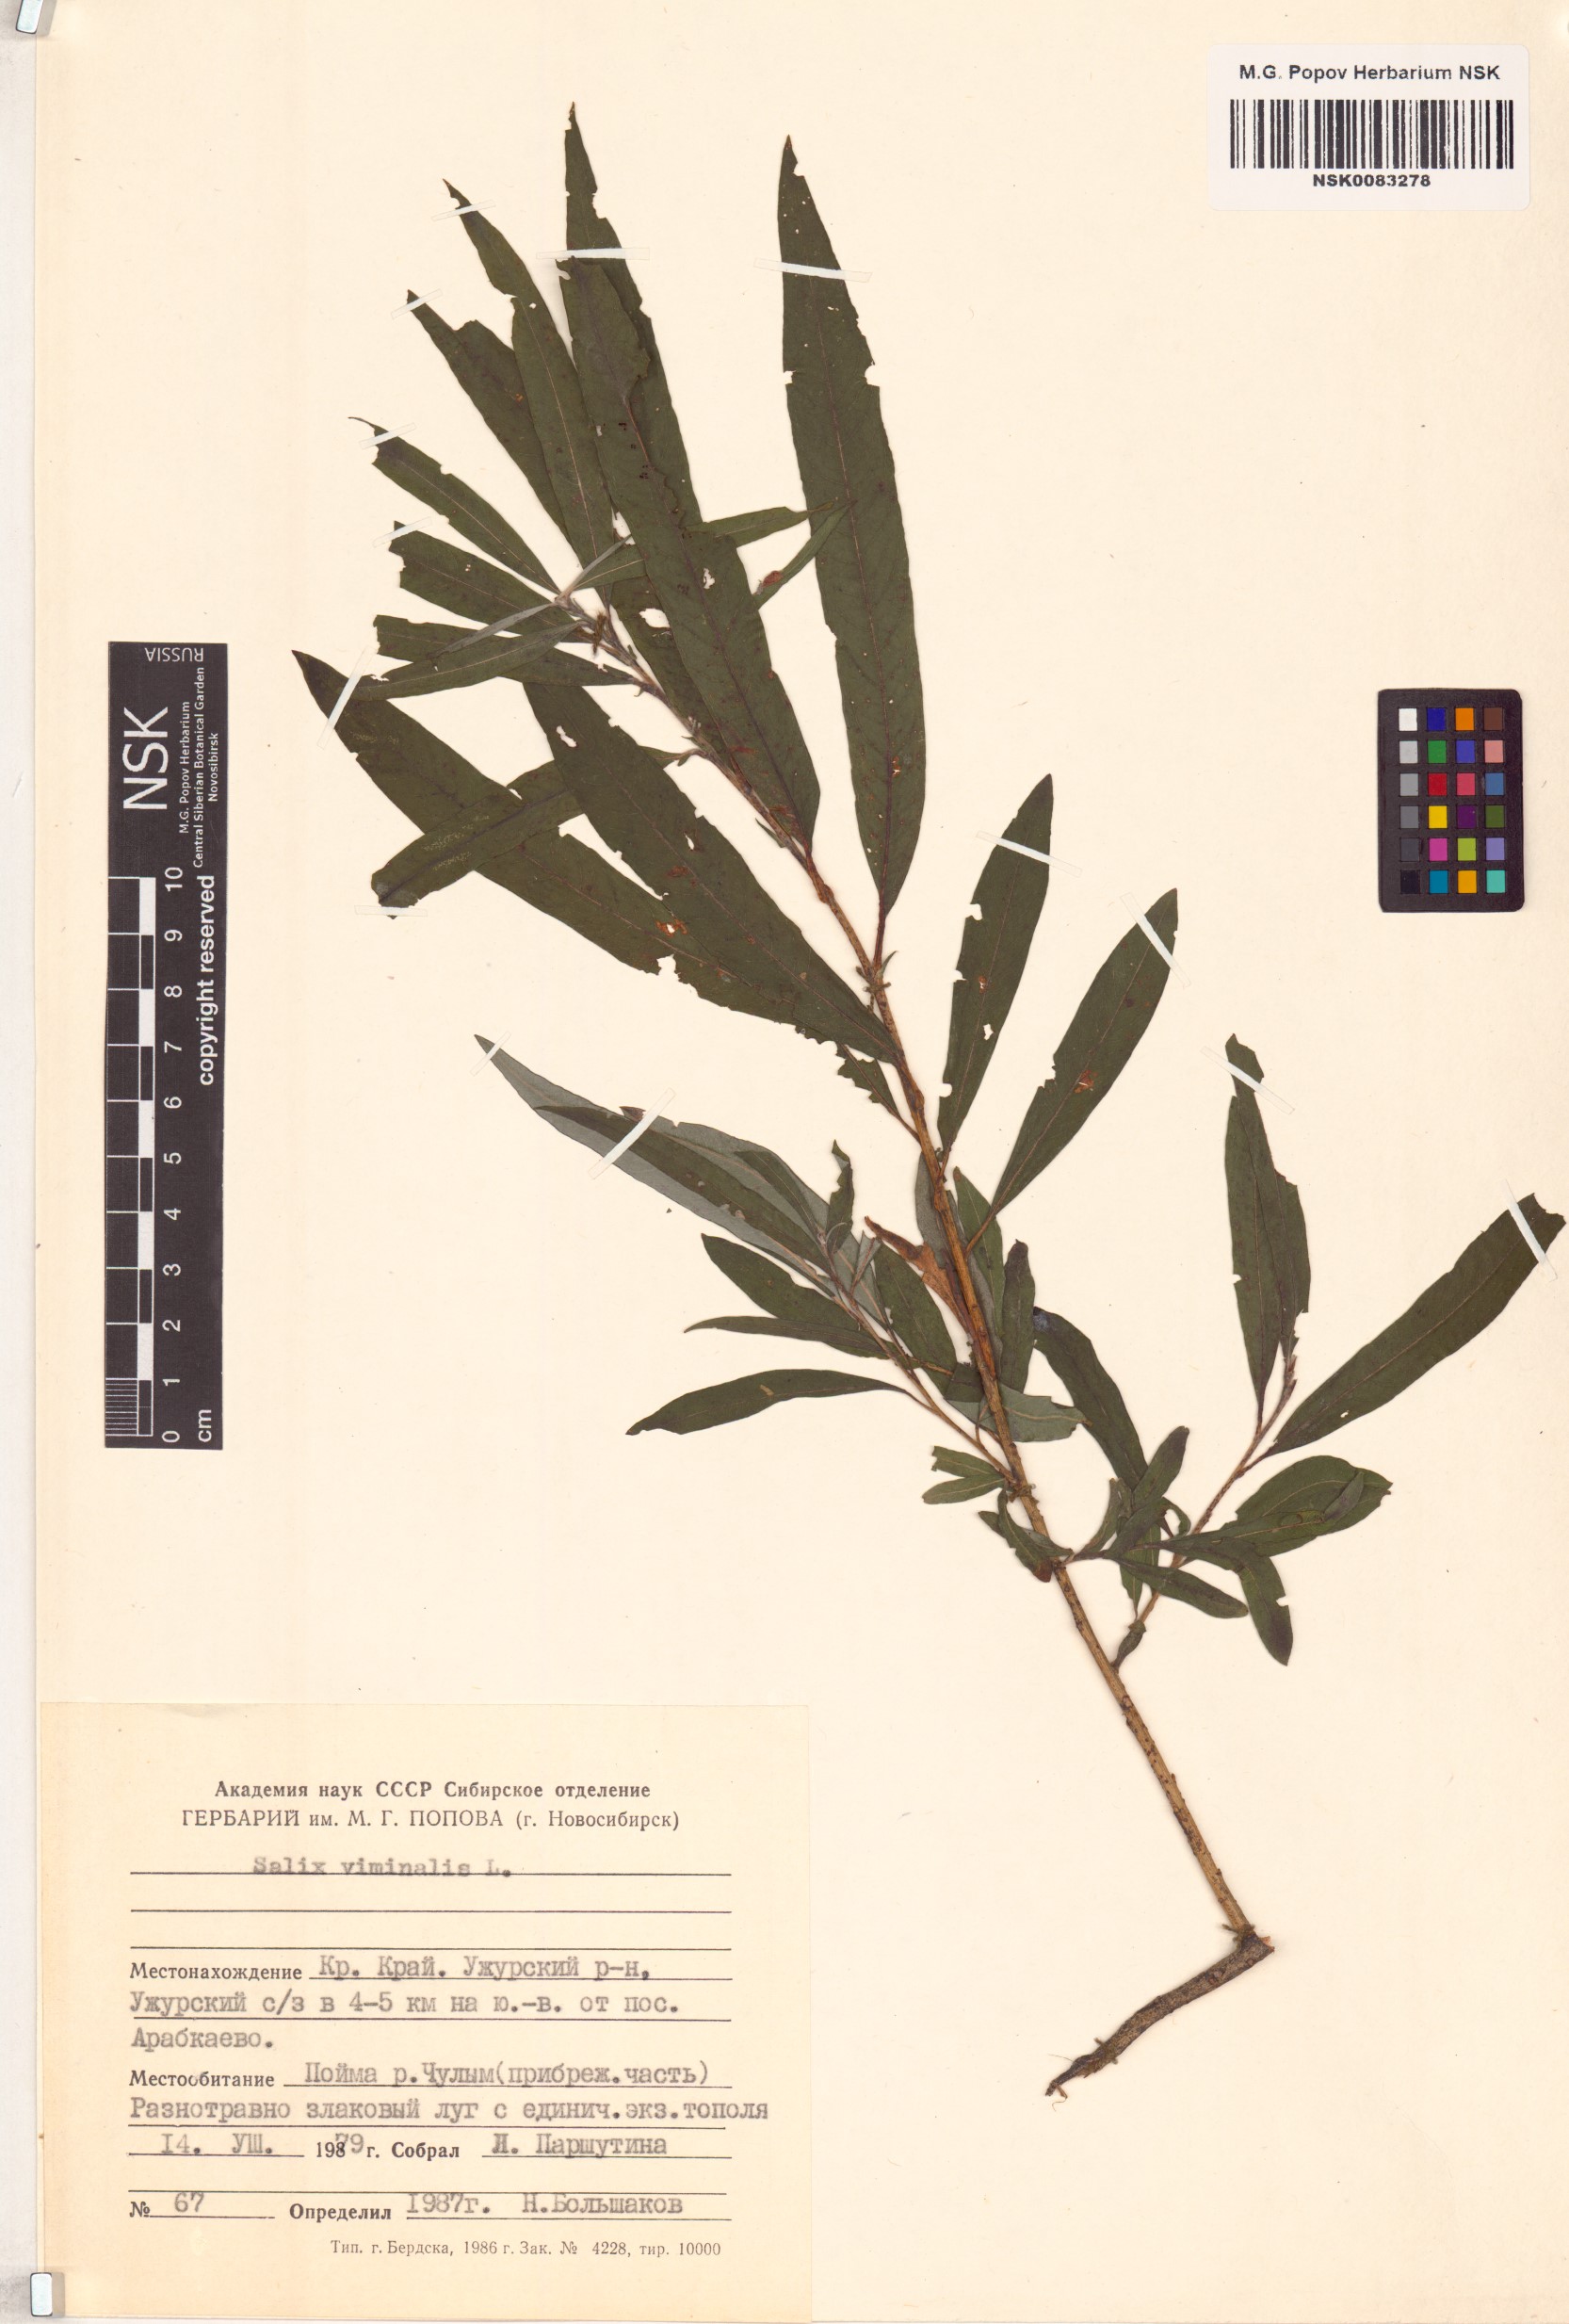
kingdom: Plantae
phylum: Tracheophyta
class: Magnoliopsida
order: Malpighiales
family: Salicaceae
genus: Salix
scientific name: Salix viminalis
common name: Osier
